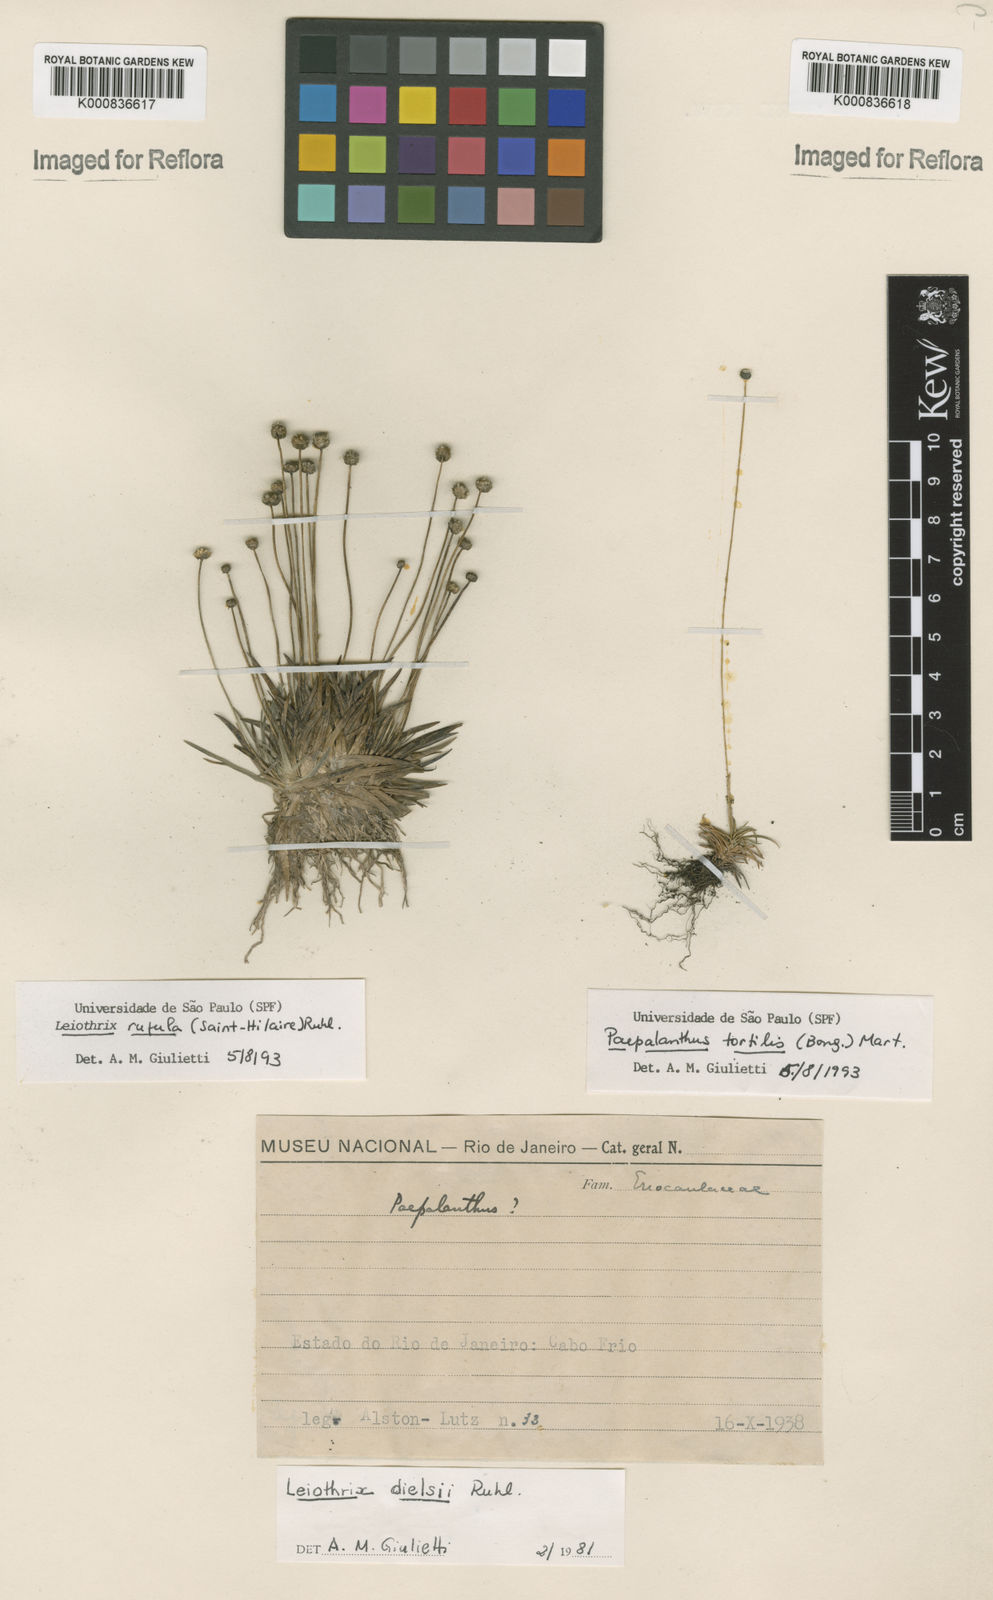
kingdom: Plantae
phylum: Tracheophyta
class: Liliopsida
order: Poales
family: Eriocaulaceae
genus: Leiothrix
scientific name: Leiothrix rufula
